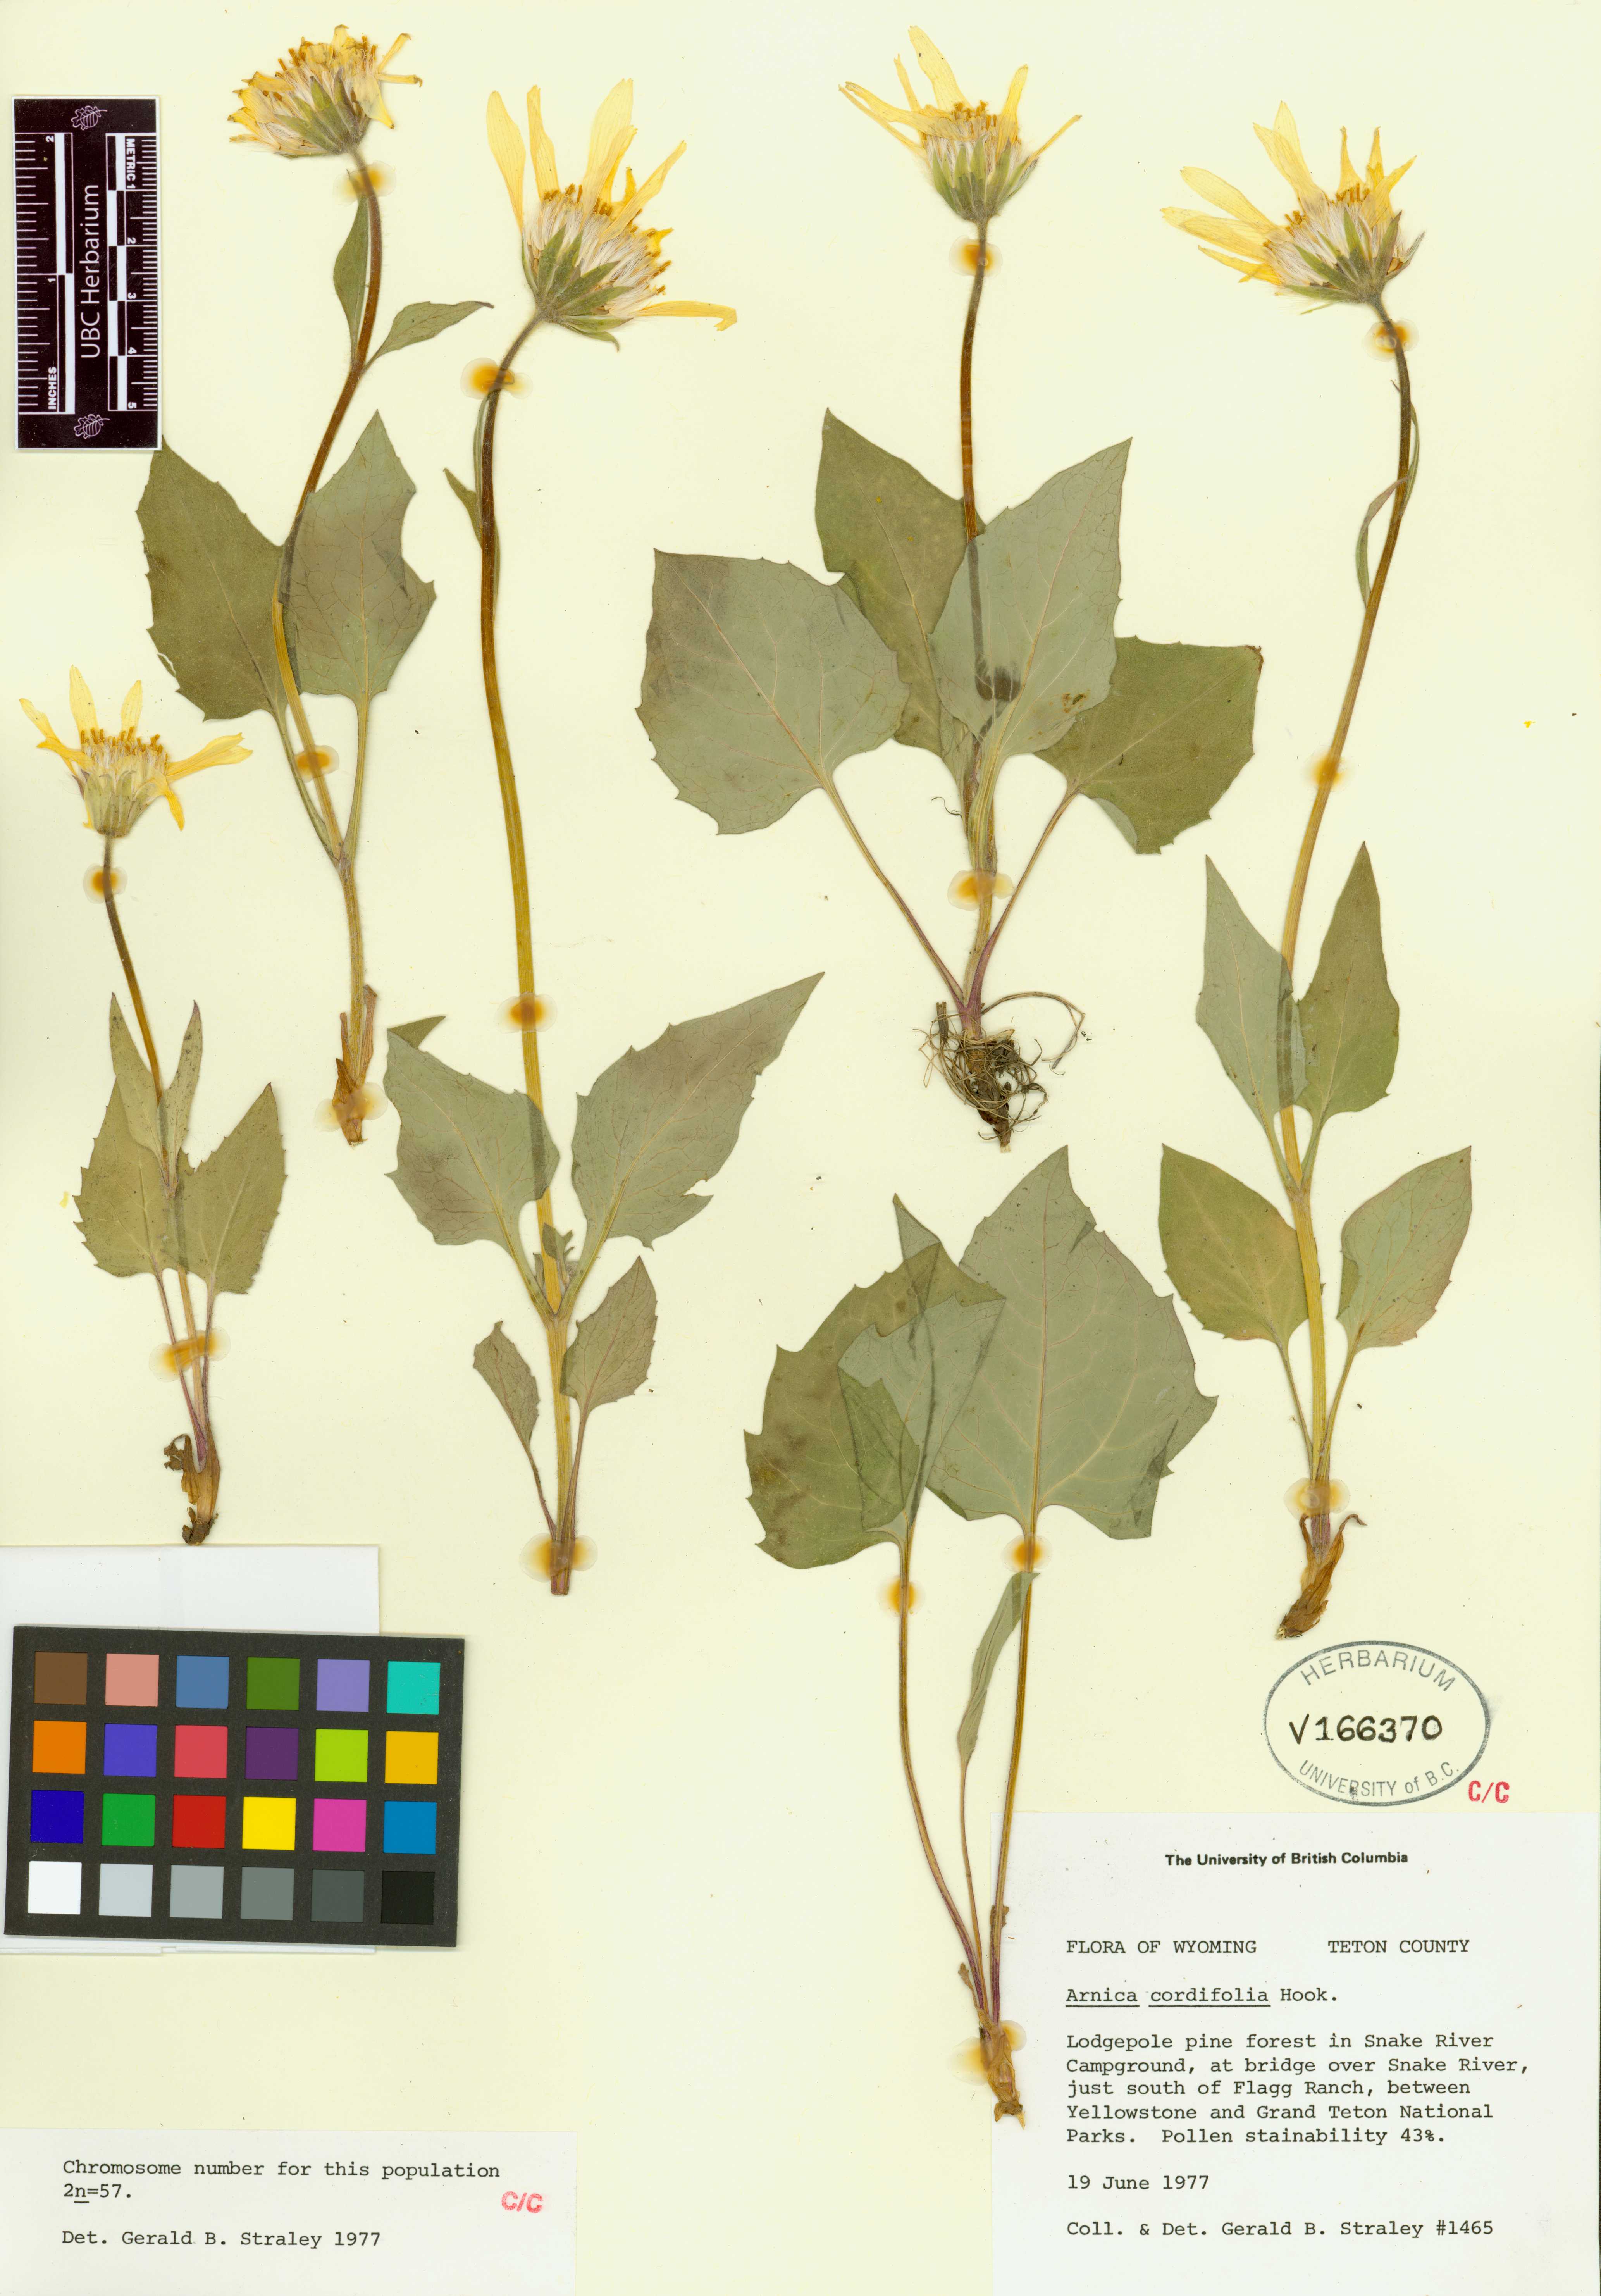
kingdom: Plantae
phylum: Tracheophyta
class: Magnoliopsida
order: Asterales
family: Asteraceae
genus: Arnica
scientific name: Arnica cordifolia
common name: Heart-leaf arnica
